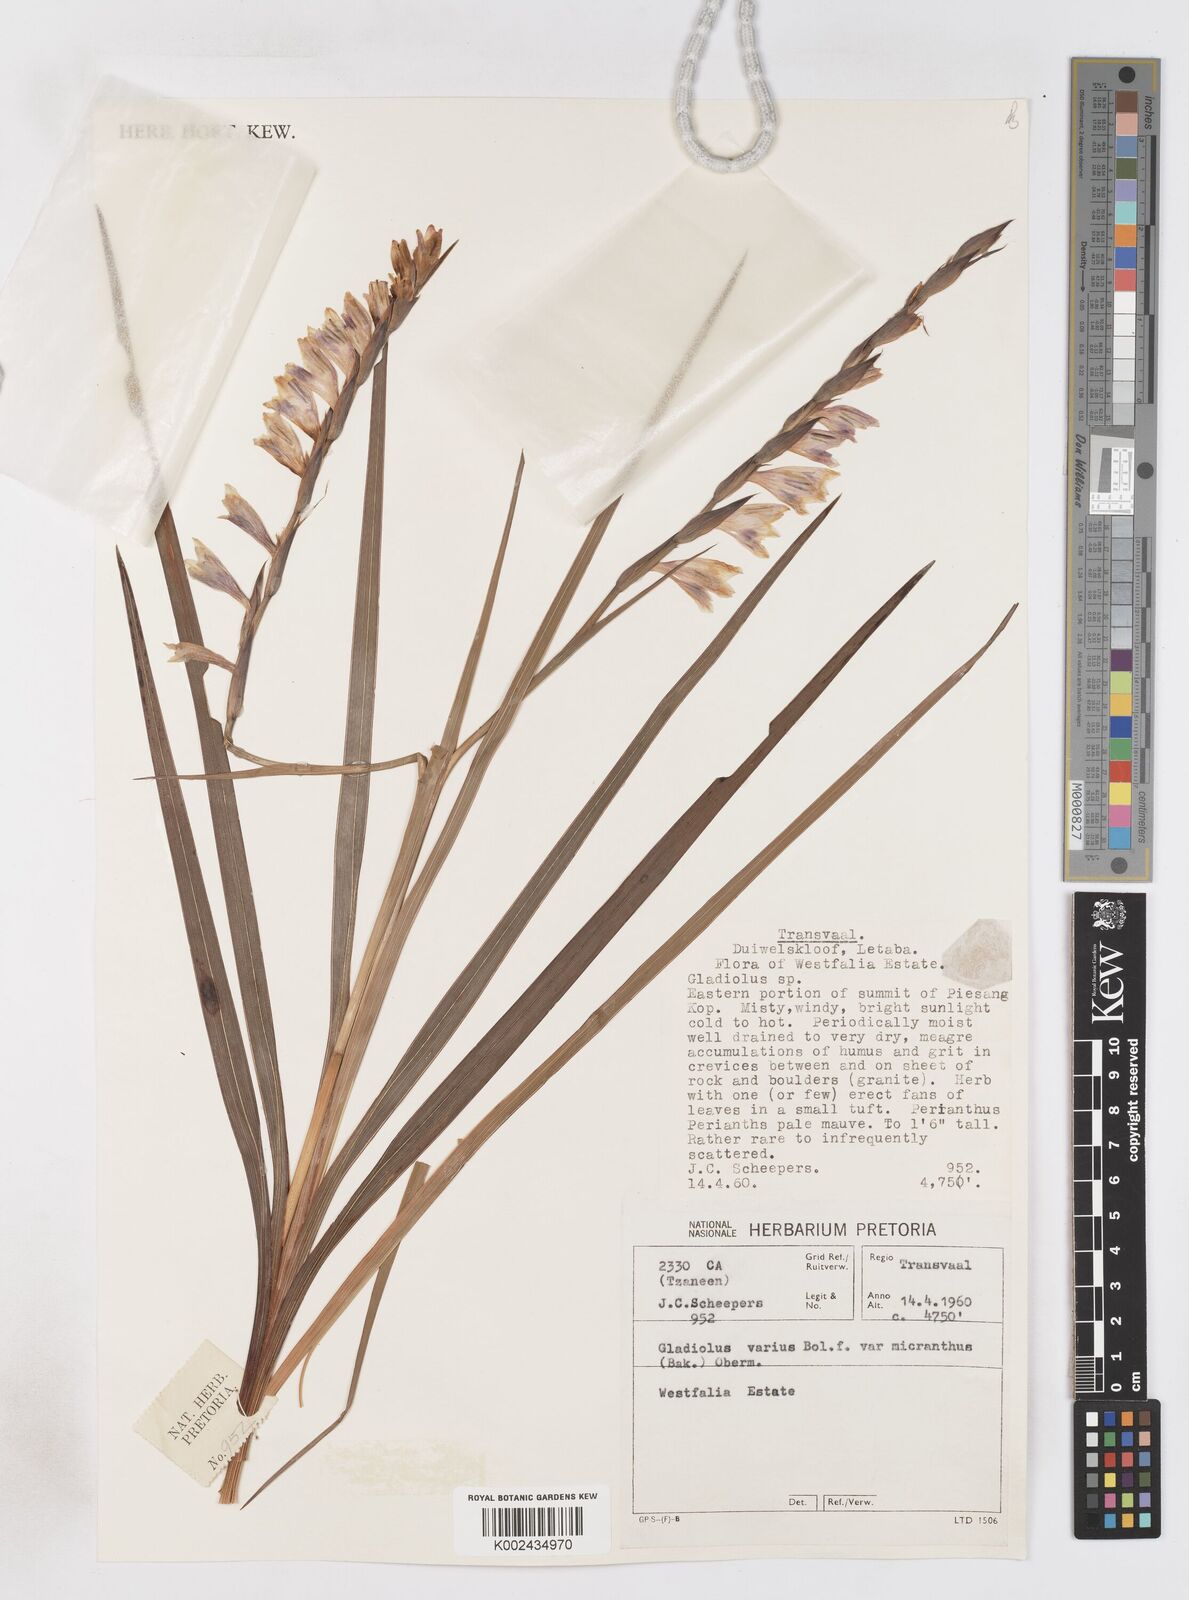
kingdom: Plantae
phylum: Tracheophyta
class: Liliopsida
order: Asparagales
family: Iridaceae
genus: Gladiolus
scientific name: Gladiolus ferrugineus
